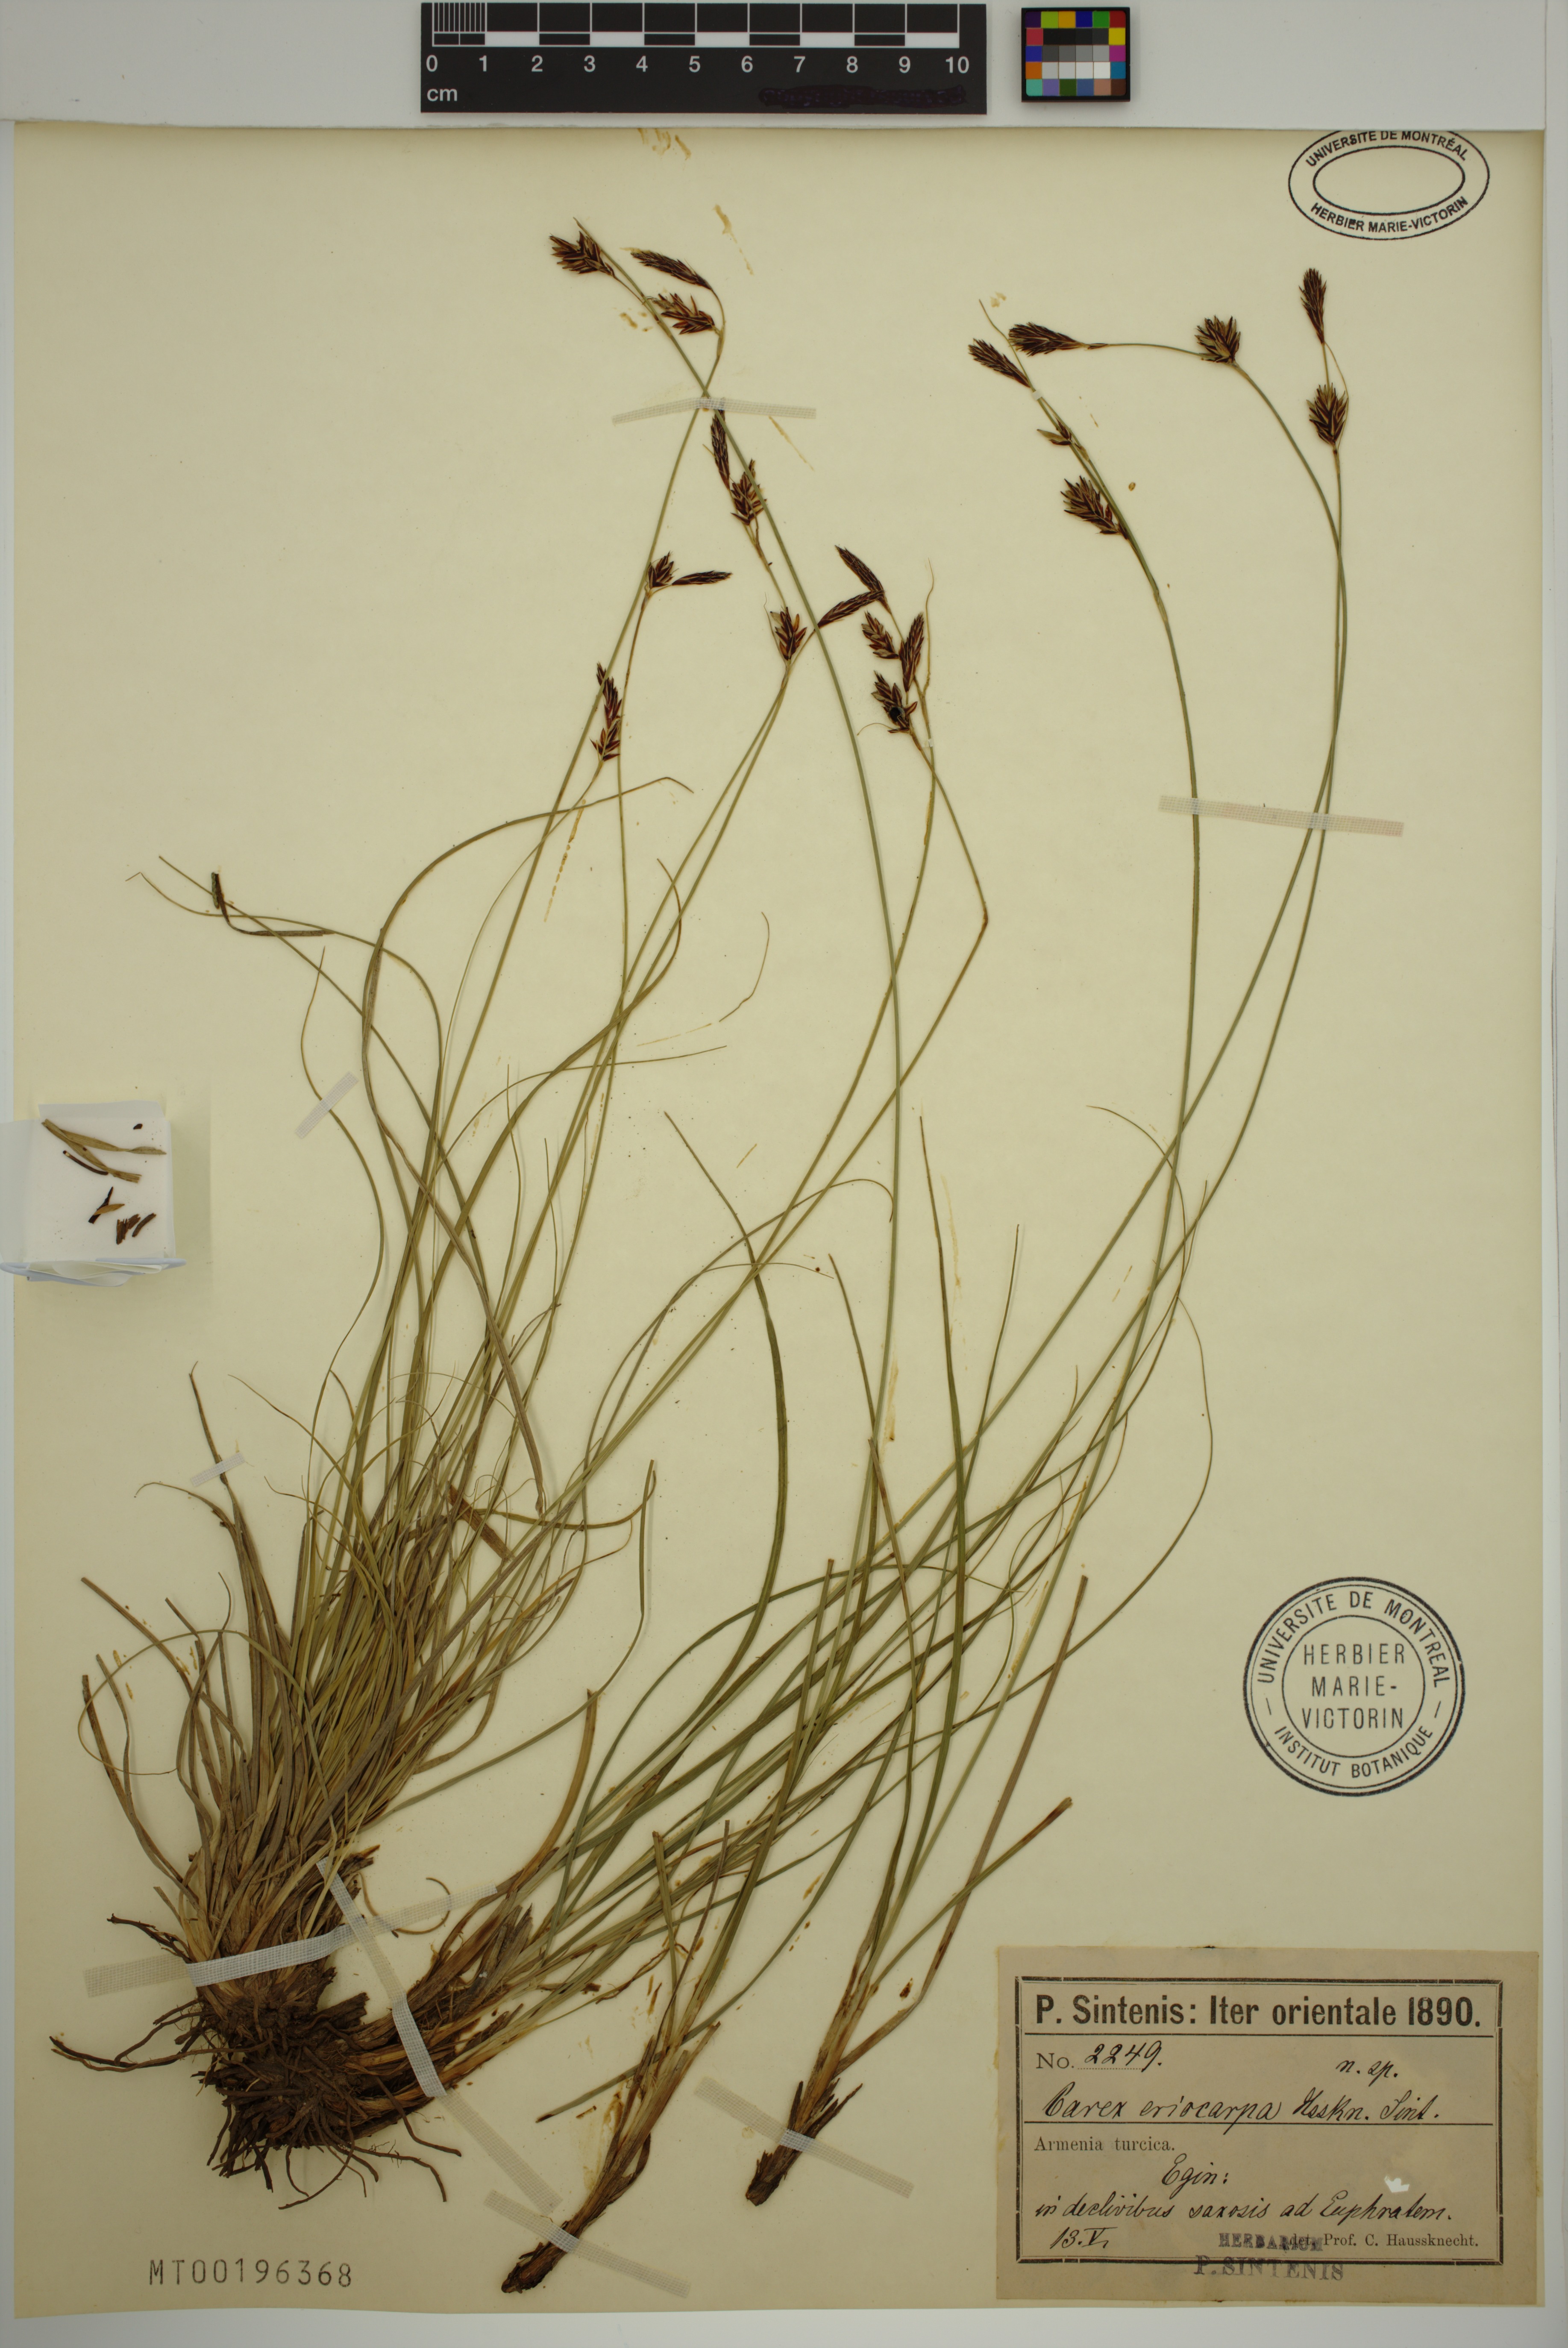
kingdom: Plantae
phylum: Tracheophyta
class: Liliopsida
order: Poales
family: Cyperaceae
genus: Carex
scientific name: Carex eriocarpa
